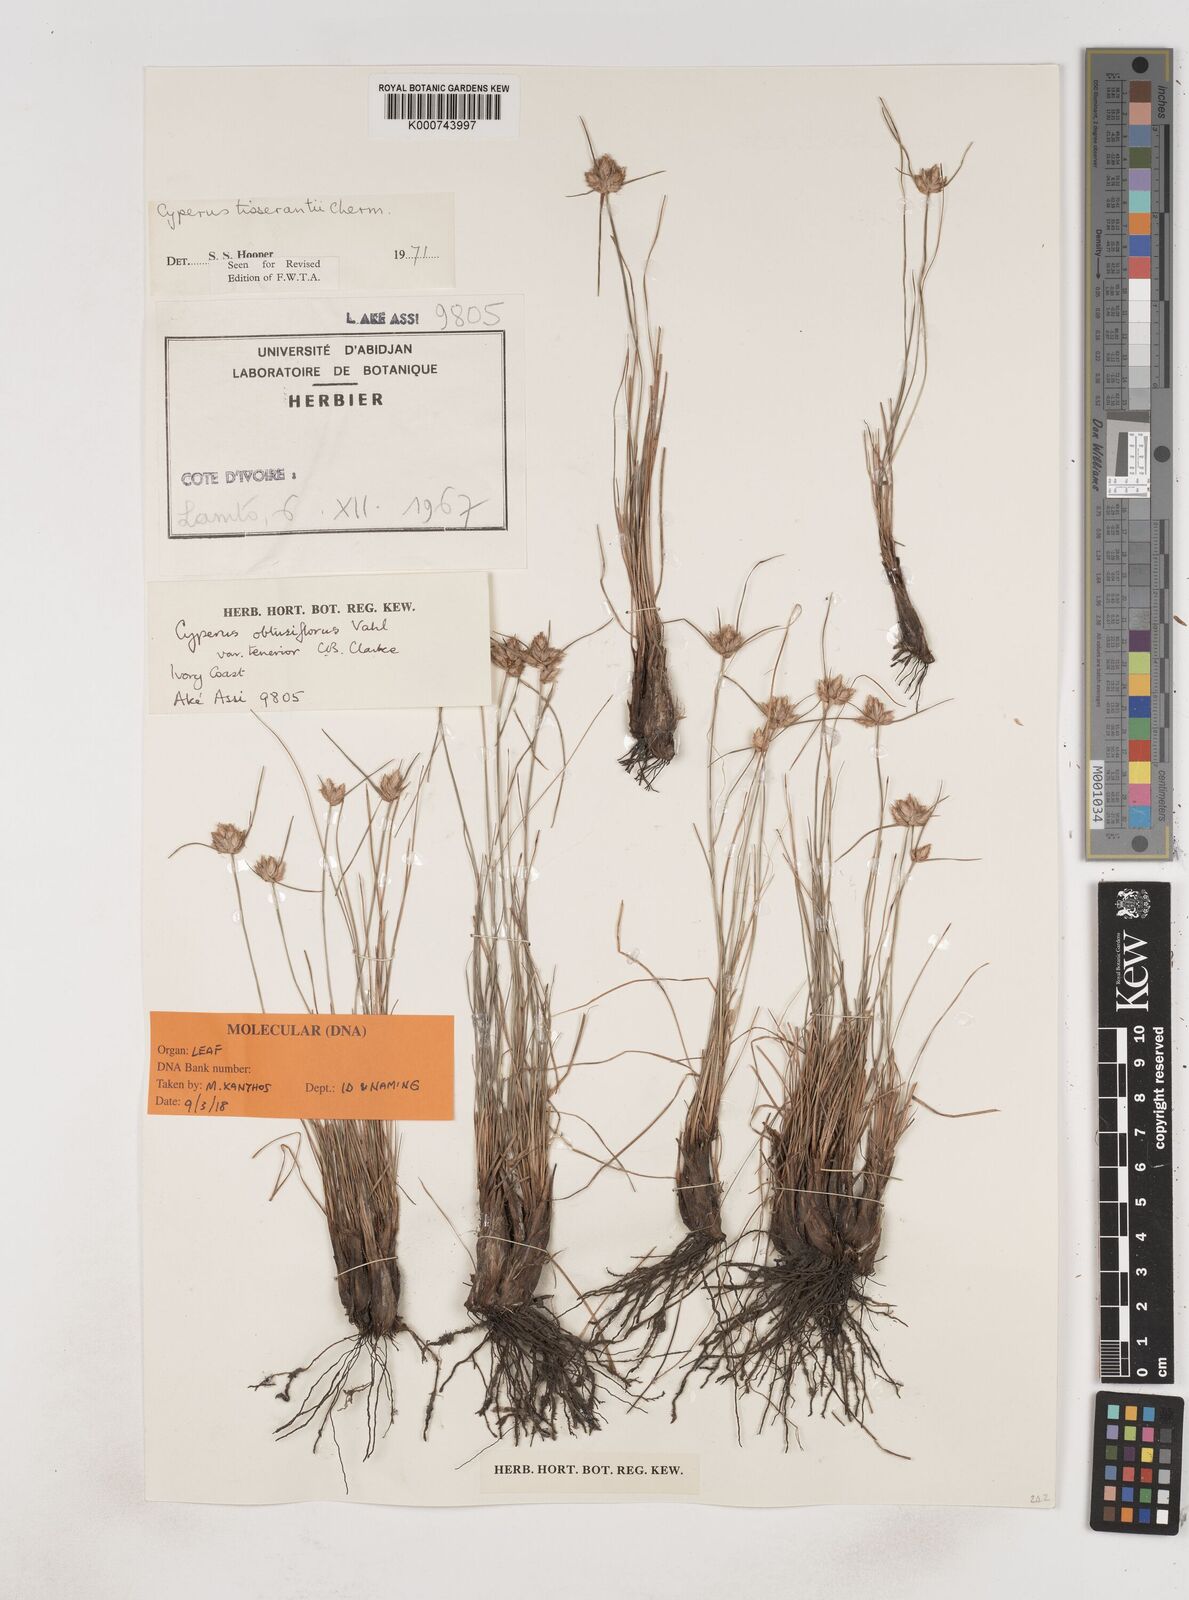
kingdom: Plantae
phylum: Tracheophyta
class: Liliopsida
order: Poales
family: Cyperaceae
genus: Cyperus
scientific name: Cyperus niveus
